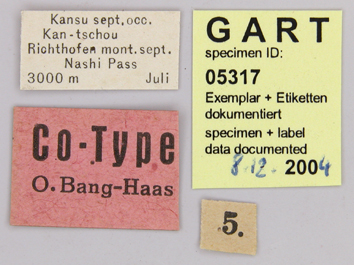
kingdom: Animalia
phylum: Arthropoda
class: Insecta
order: Lepidoptera
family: Papilionidae
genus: Parnassius
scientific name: Parnassius jacquemontii
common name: Keeled apollo
